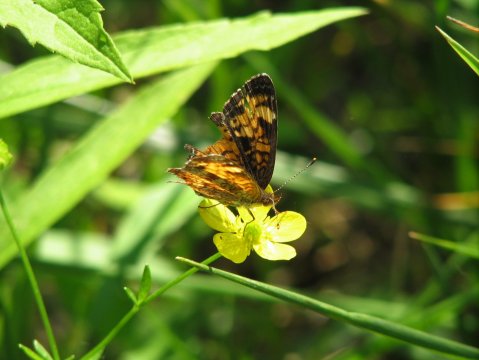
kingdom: Animalia
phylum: Arthropoda
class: Insecta
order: Lepidoptera
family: Nymphalidae
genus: Phyciodes
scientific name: Phyciodes tharos
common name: Pearl Crescent
